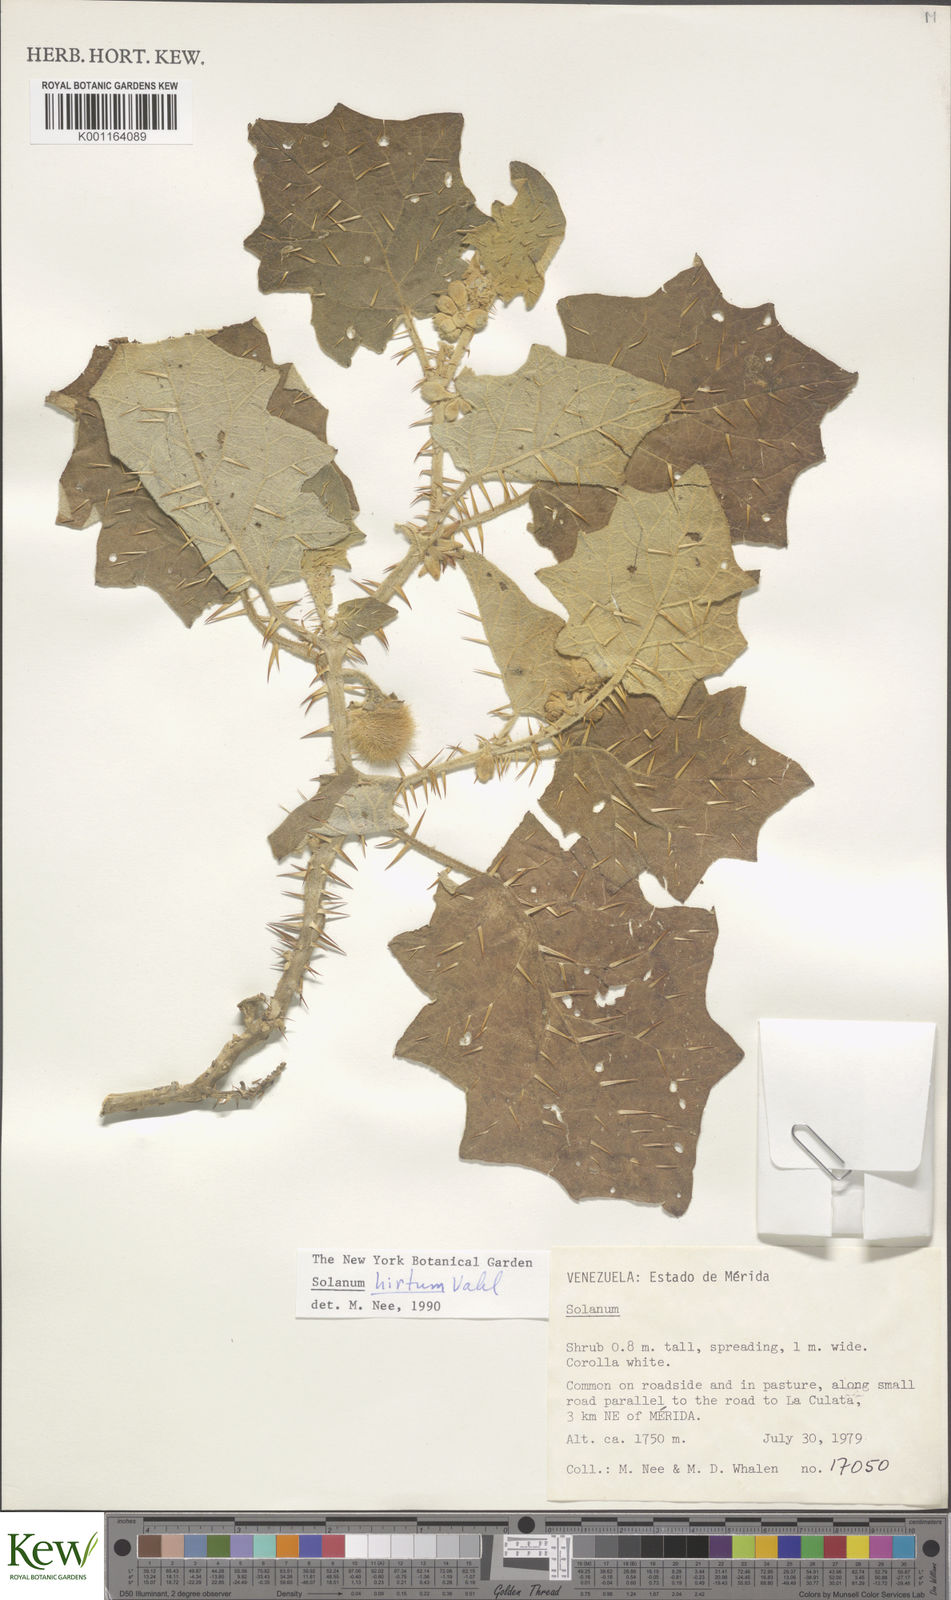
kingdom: Plantae
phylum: Tracheophyta
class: Magnoliopsida
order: Solanales
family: Solanaceae
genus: Solanum
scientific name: Solanum hirtum
